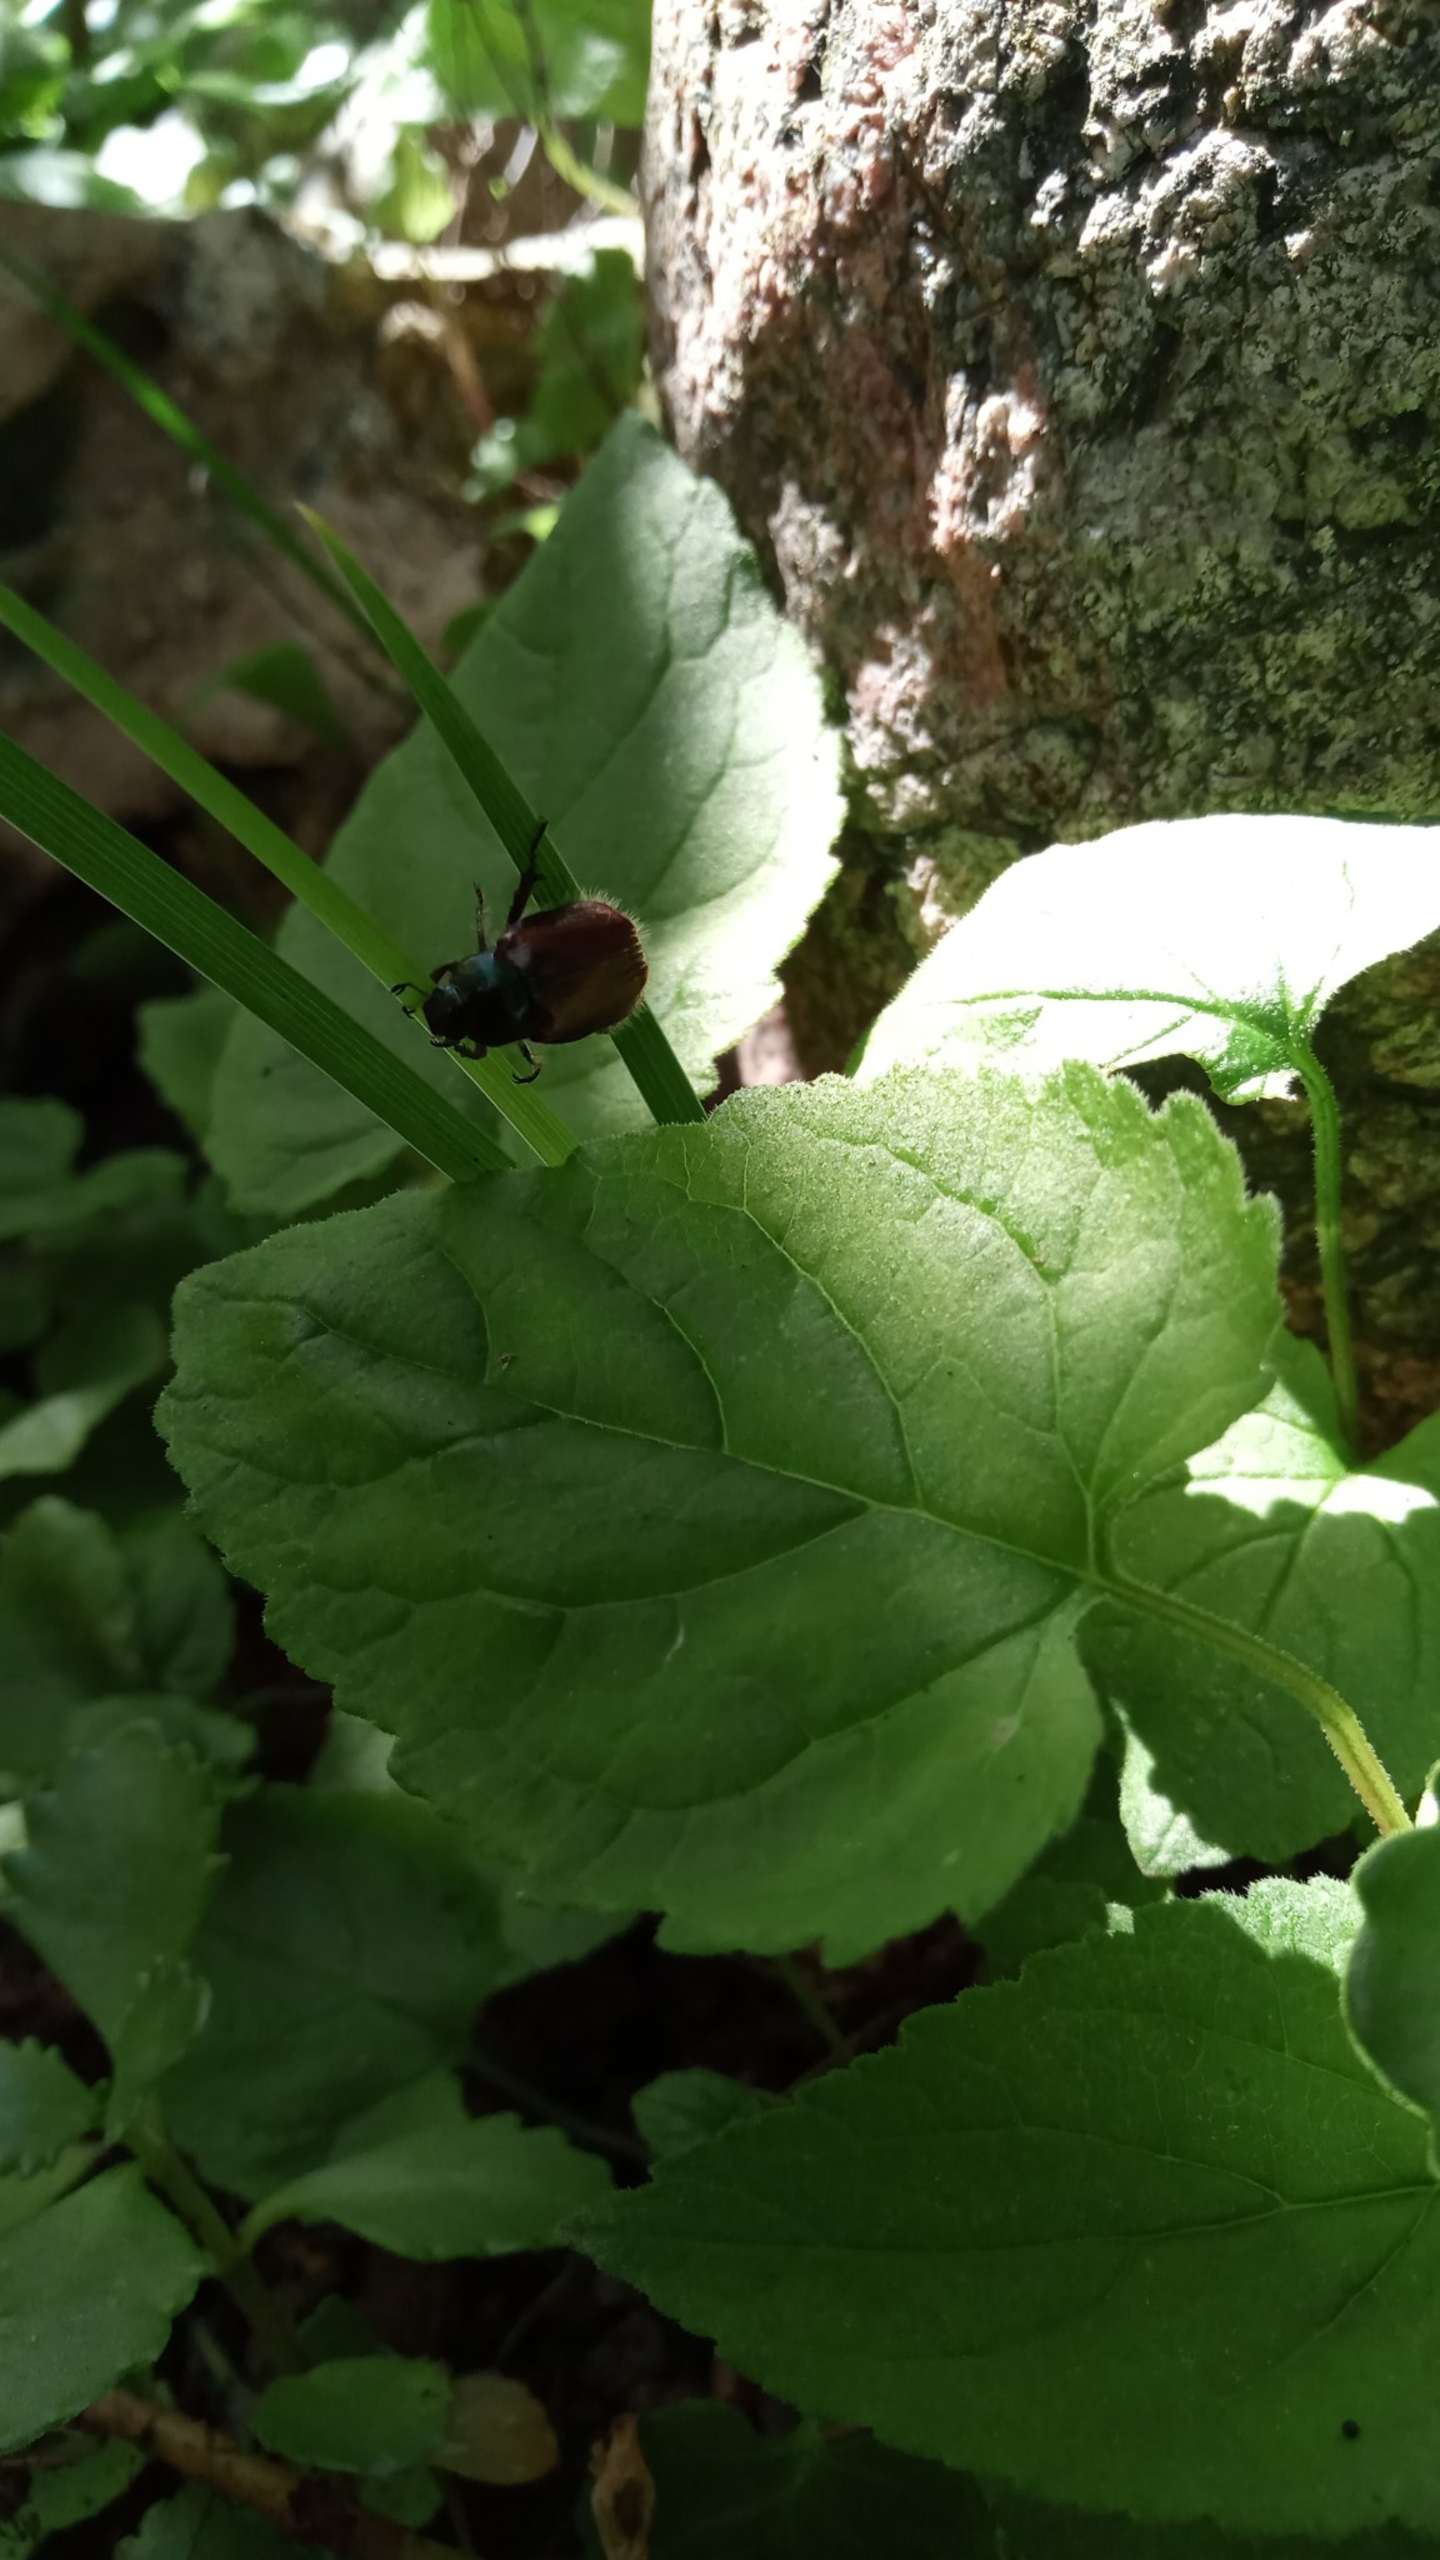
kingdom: Animalia
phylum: Arthropoda
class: Insecta
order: Coleoptera
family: Scarabaeidae
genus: Phyllopertha
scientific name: Phyllopertha horticola
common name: Gåsebille
